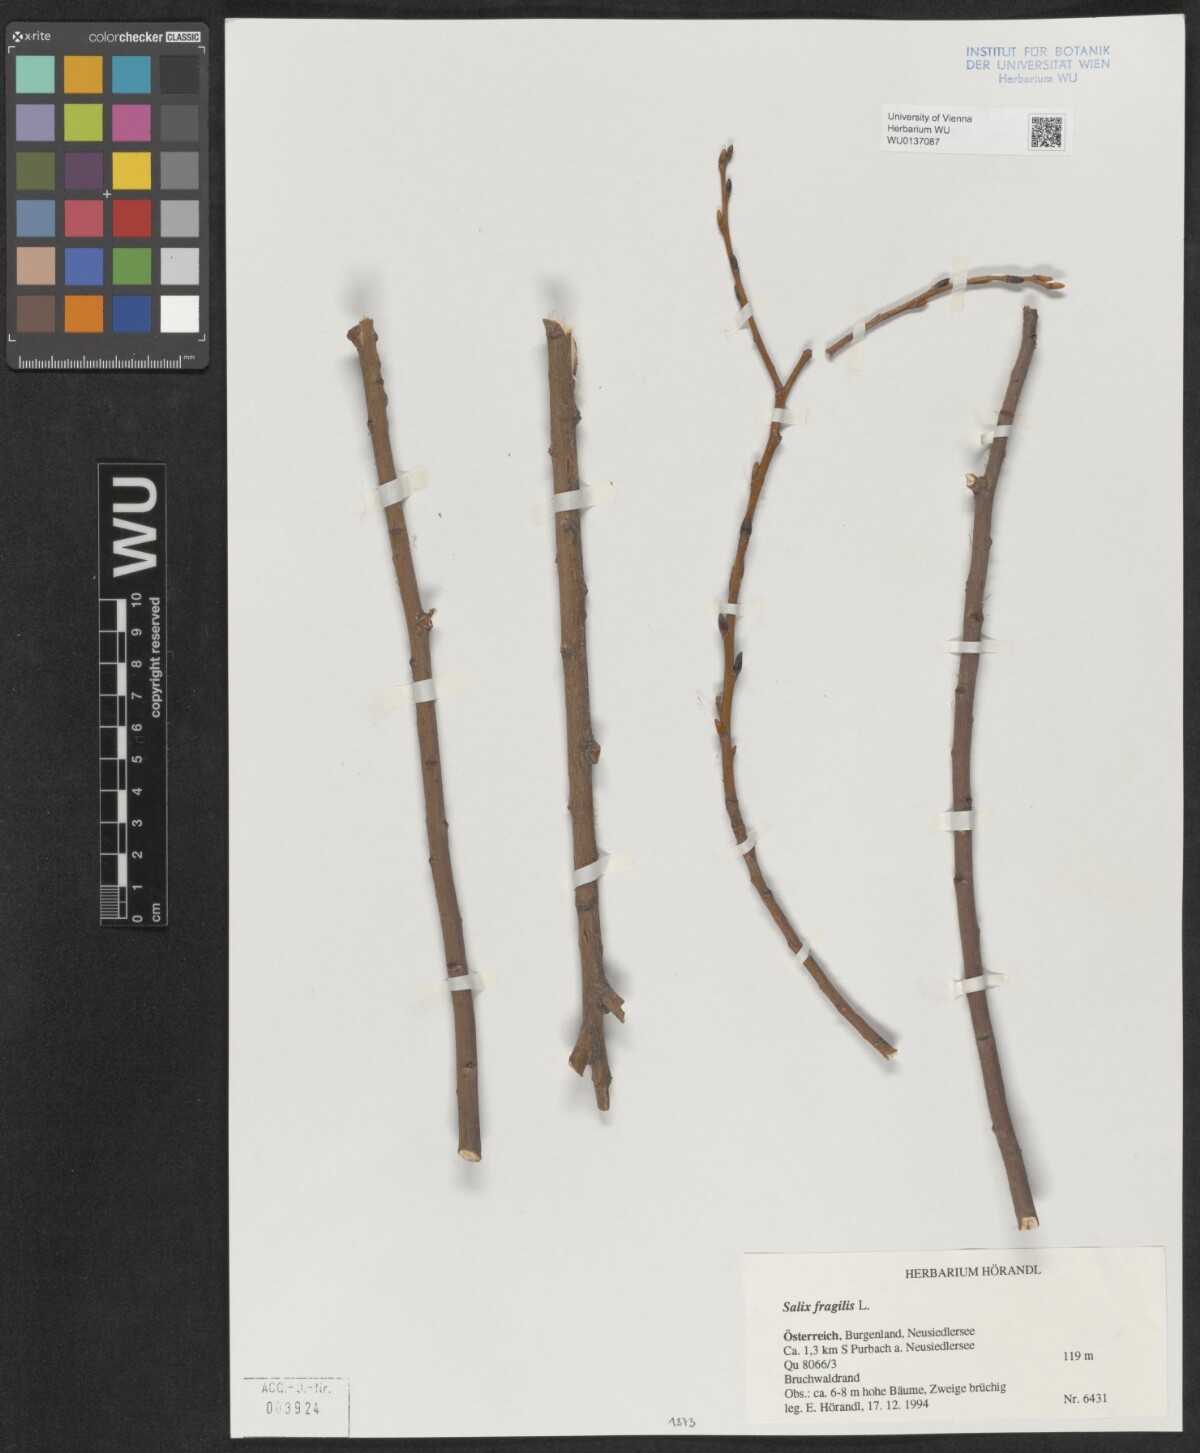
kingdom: Plantae
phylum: Tracheophyta
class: Magnoliopsida
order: Malpighiales
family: Salicaceae
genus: Salix
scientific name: Salix fragilis
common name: Crack willow
